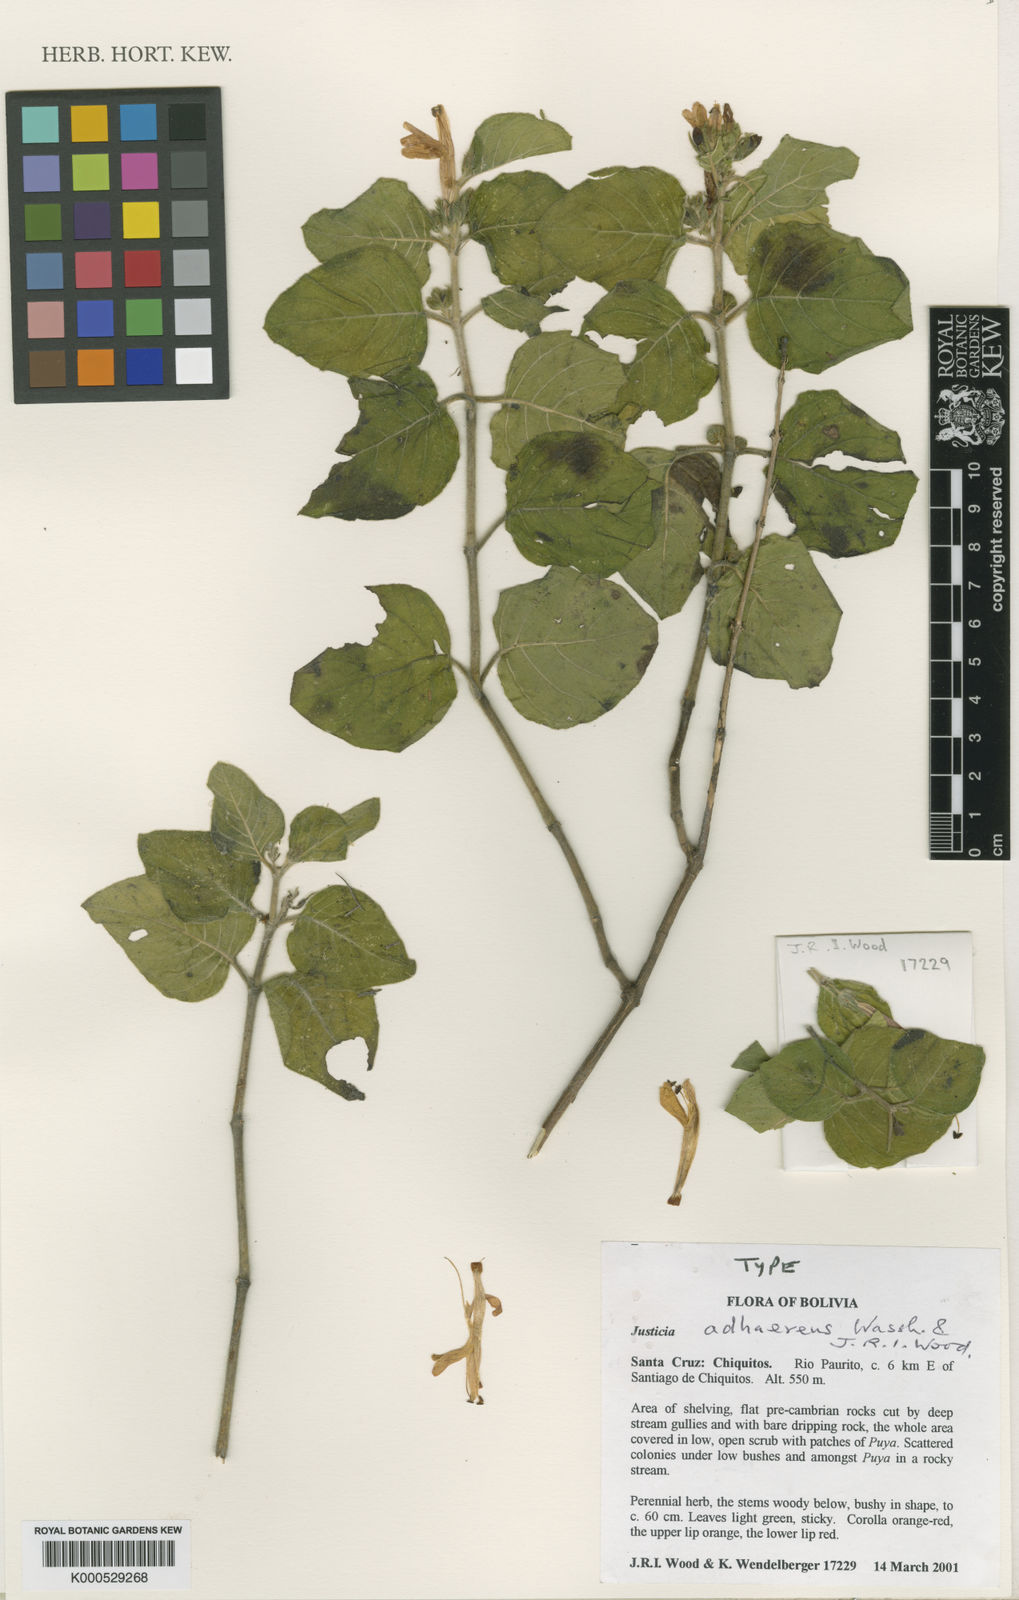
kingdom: Plantae
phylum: Tracheophyta
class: Magnoliopsida
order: Lamiales
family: Acanthaceae
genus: Justicia
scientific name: Justicia adhaerens
